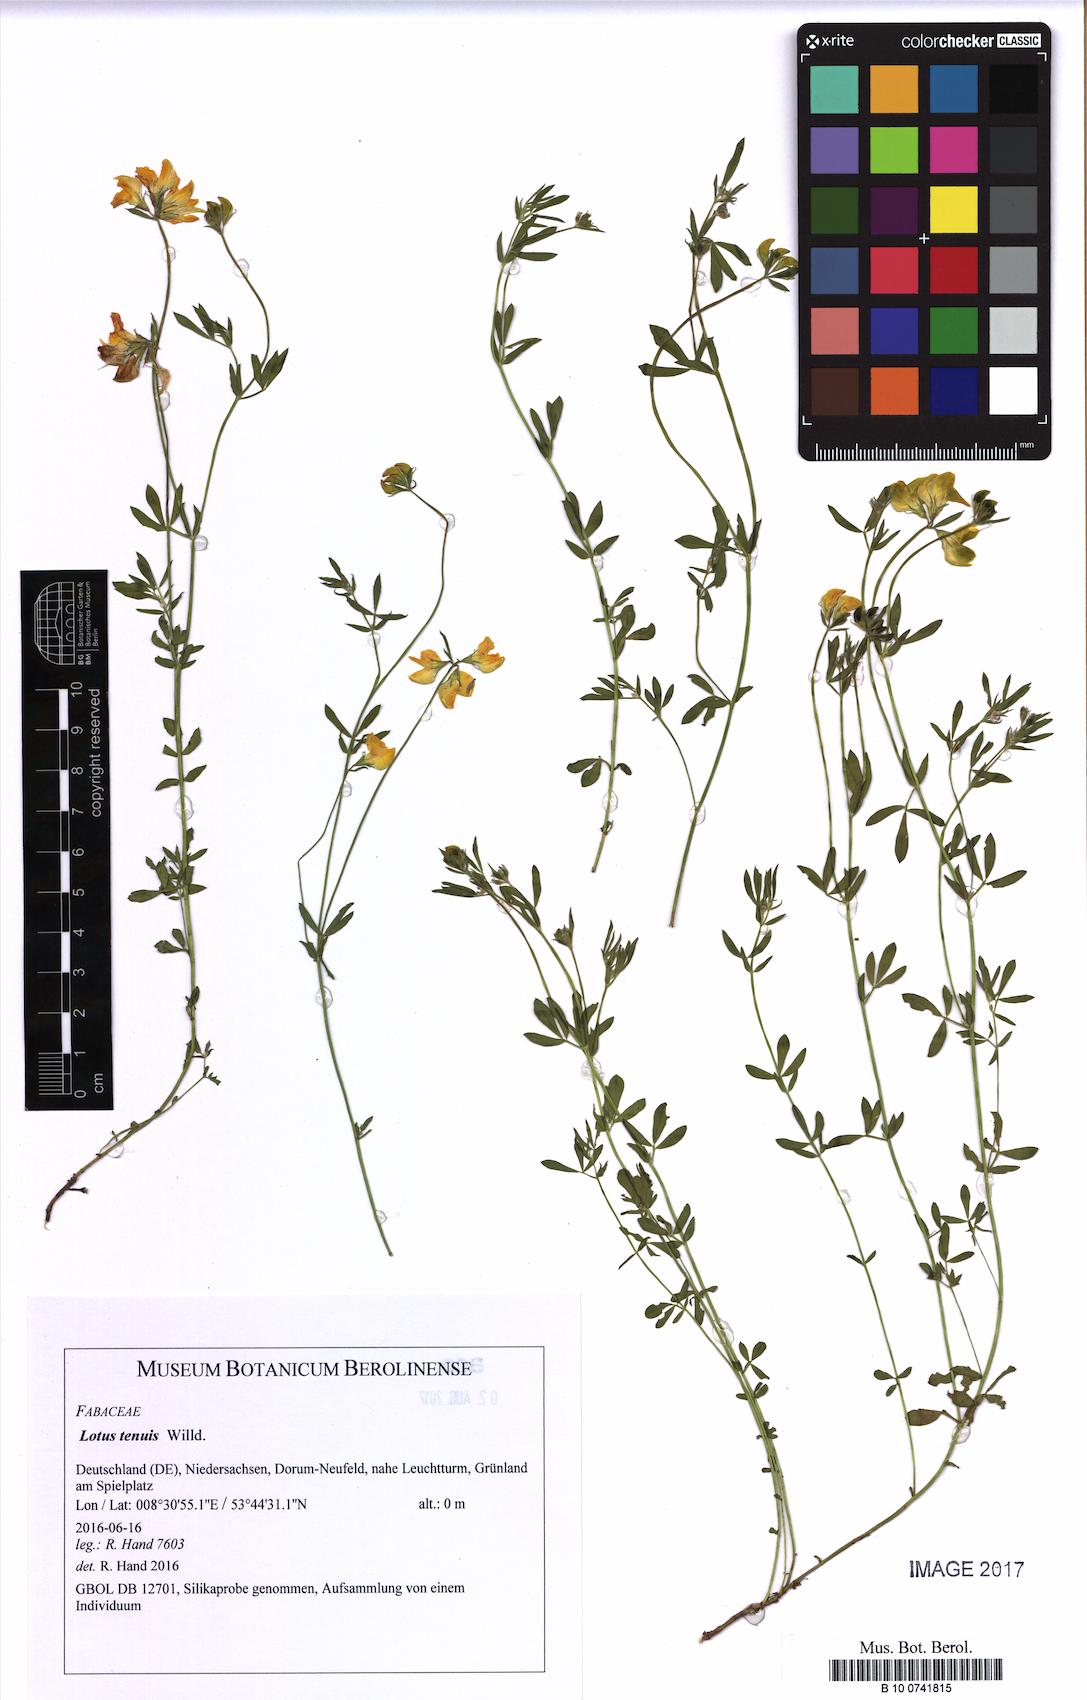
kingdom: Plantae
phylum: Tracheophyta
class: Magnoliopsida
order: Fabales
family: Fabaceae
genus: Lotus
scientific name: Lotus tenuis
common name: Narrow-leaved bird's-foot-trefoil
